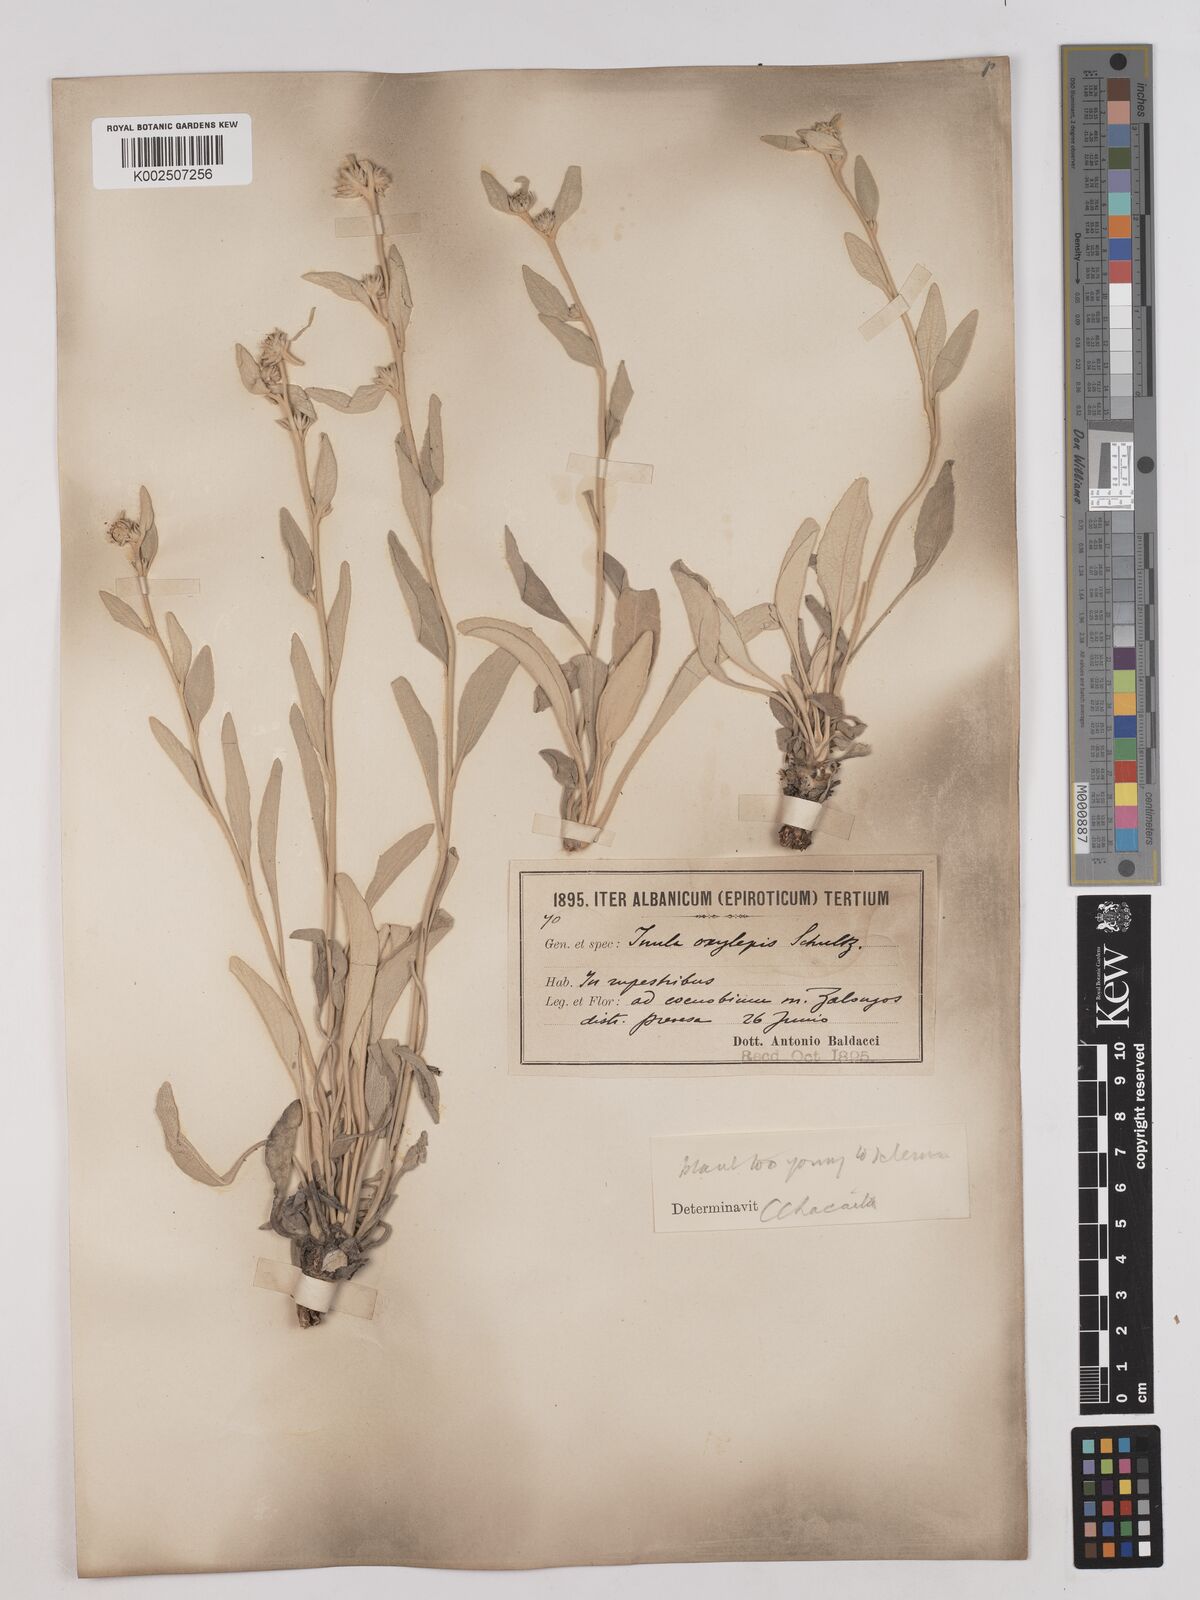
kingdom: Plantae
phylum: Tracheophyta
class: Magnoliopsida
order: Asterales
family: Asteraceae
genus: Pentanema
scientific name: Pentanema verbascifolium
